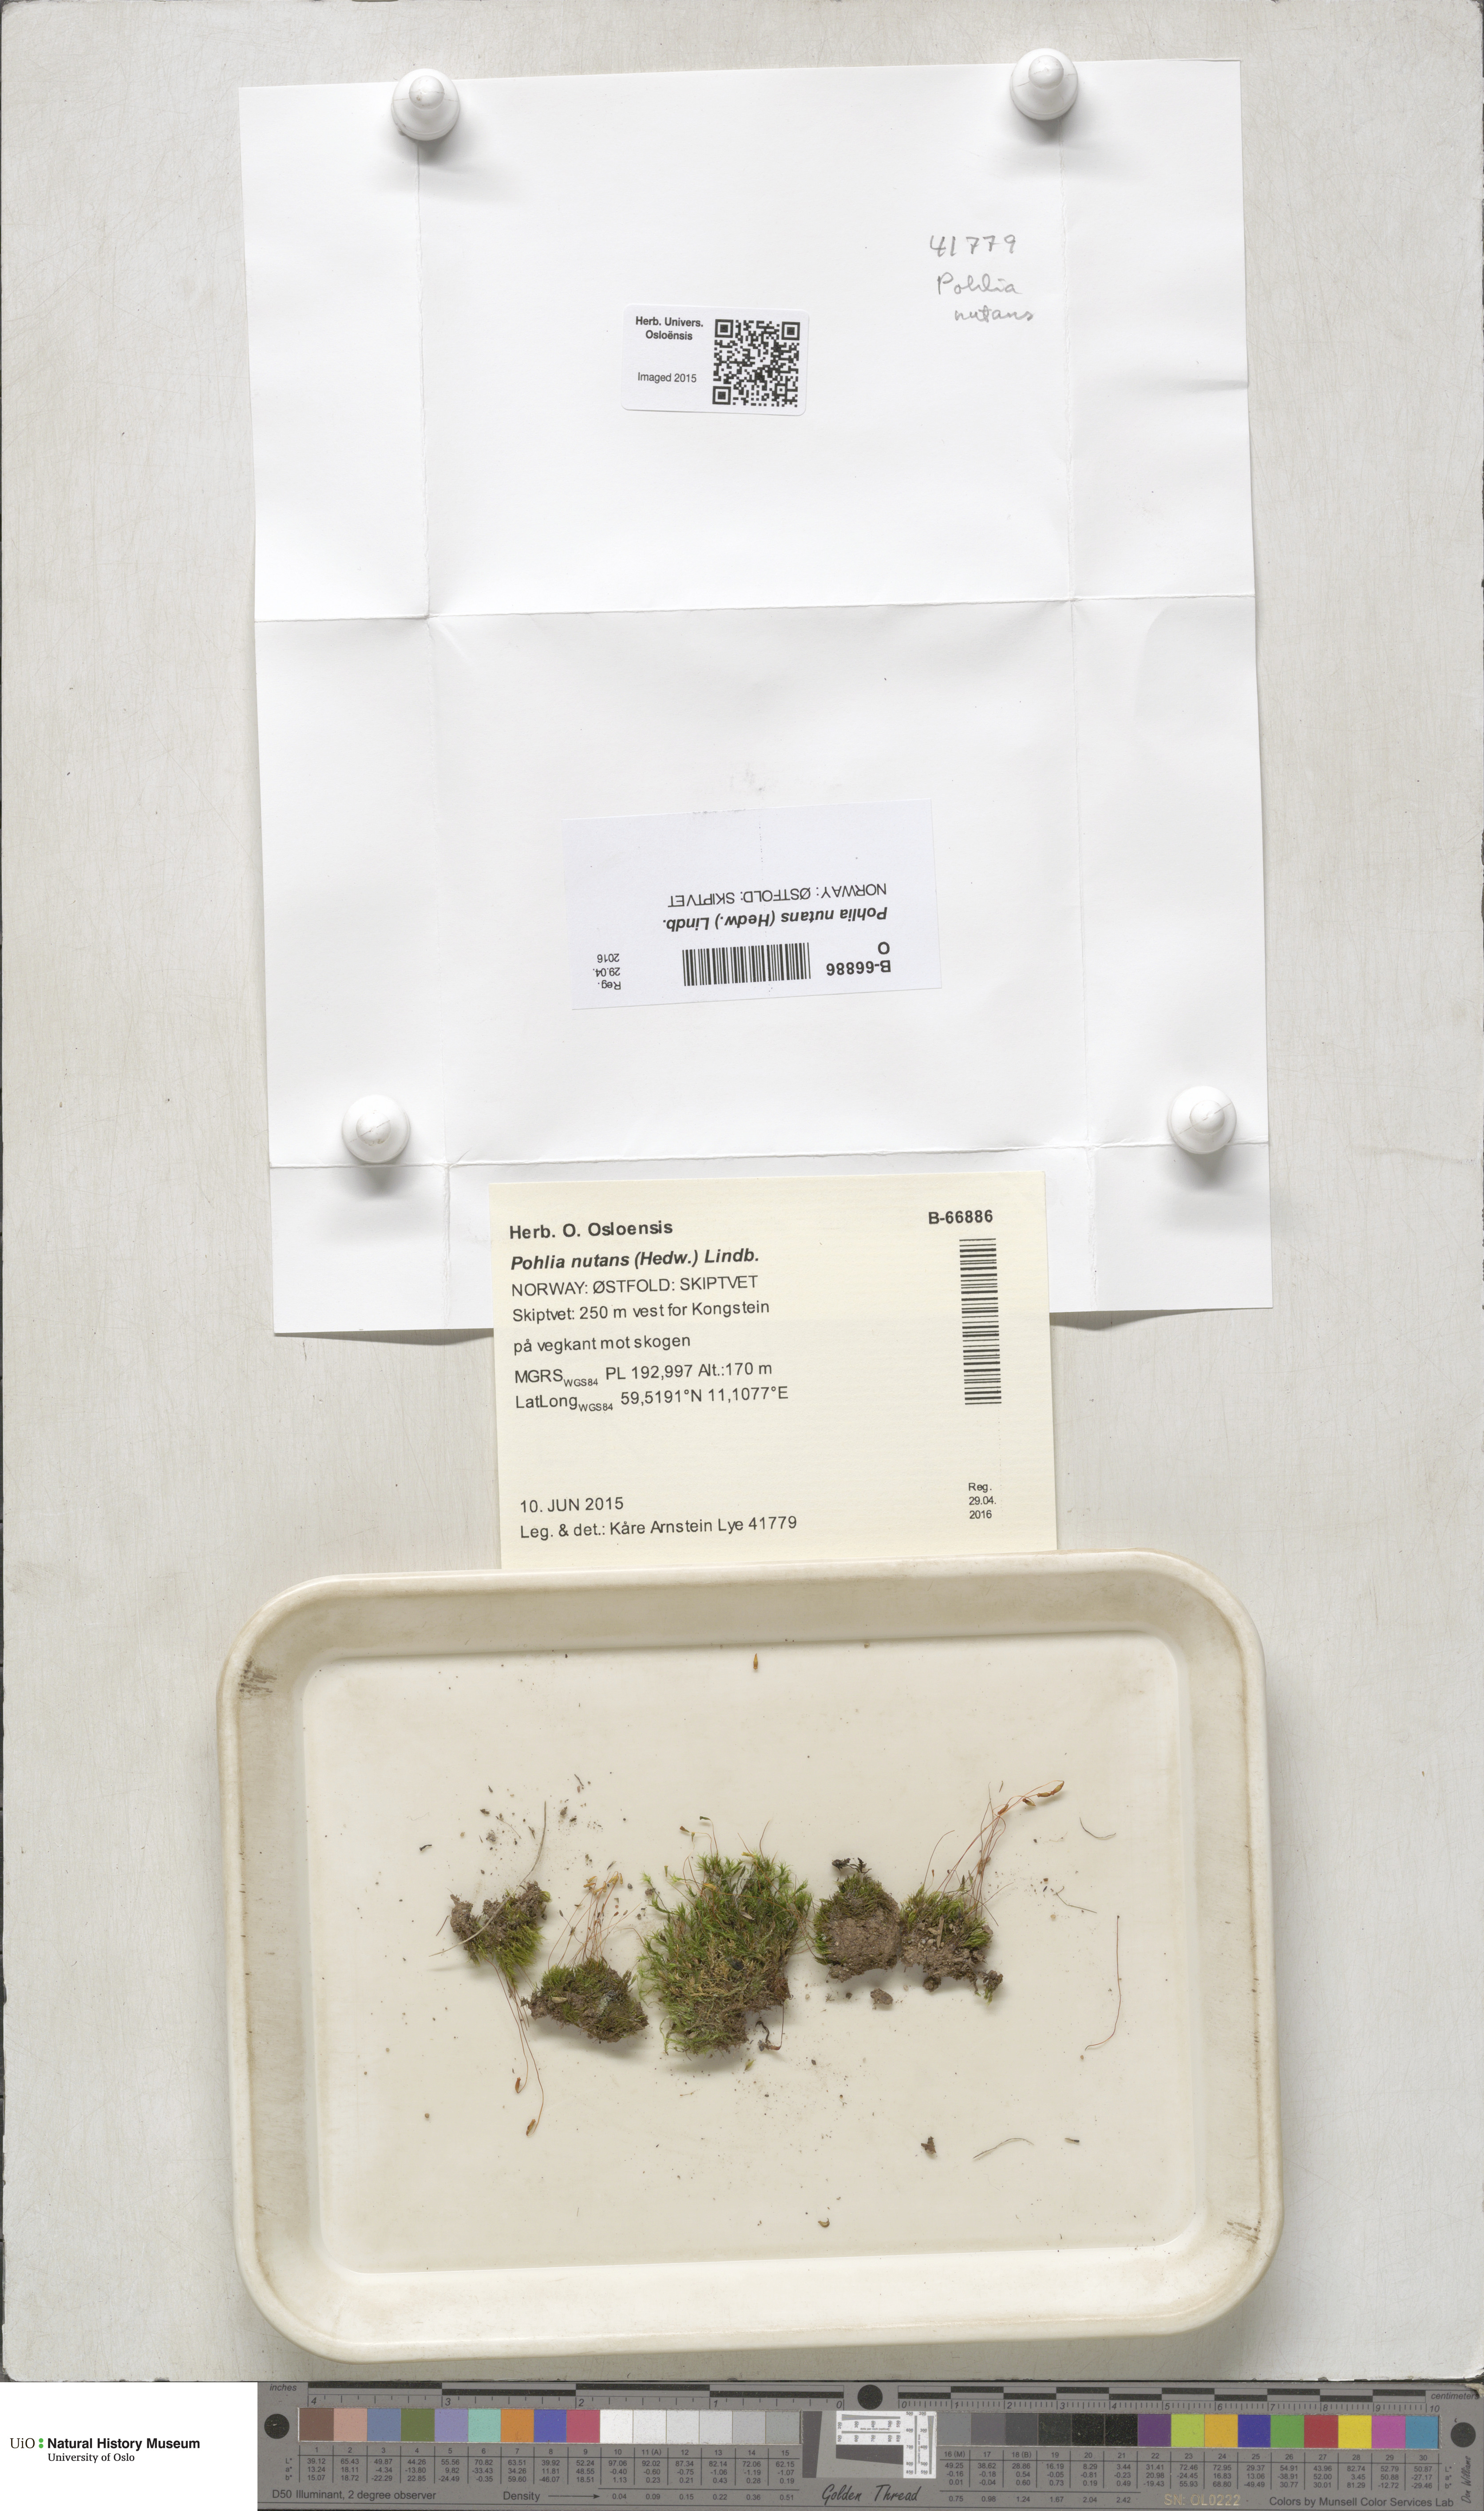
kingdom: Plantae
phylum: Bryophyta
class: Bryopsida
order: Bryales
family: Mniaceae
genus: Pohlia
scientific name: Pohlia nutans
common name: Nodding thread-moss
